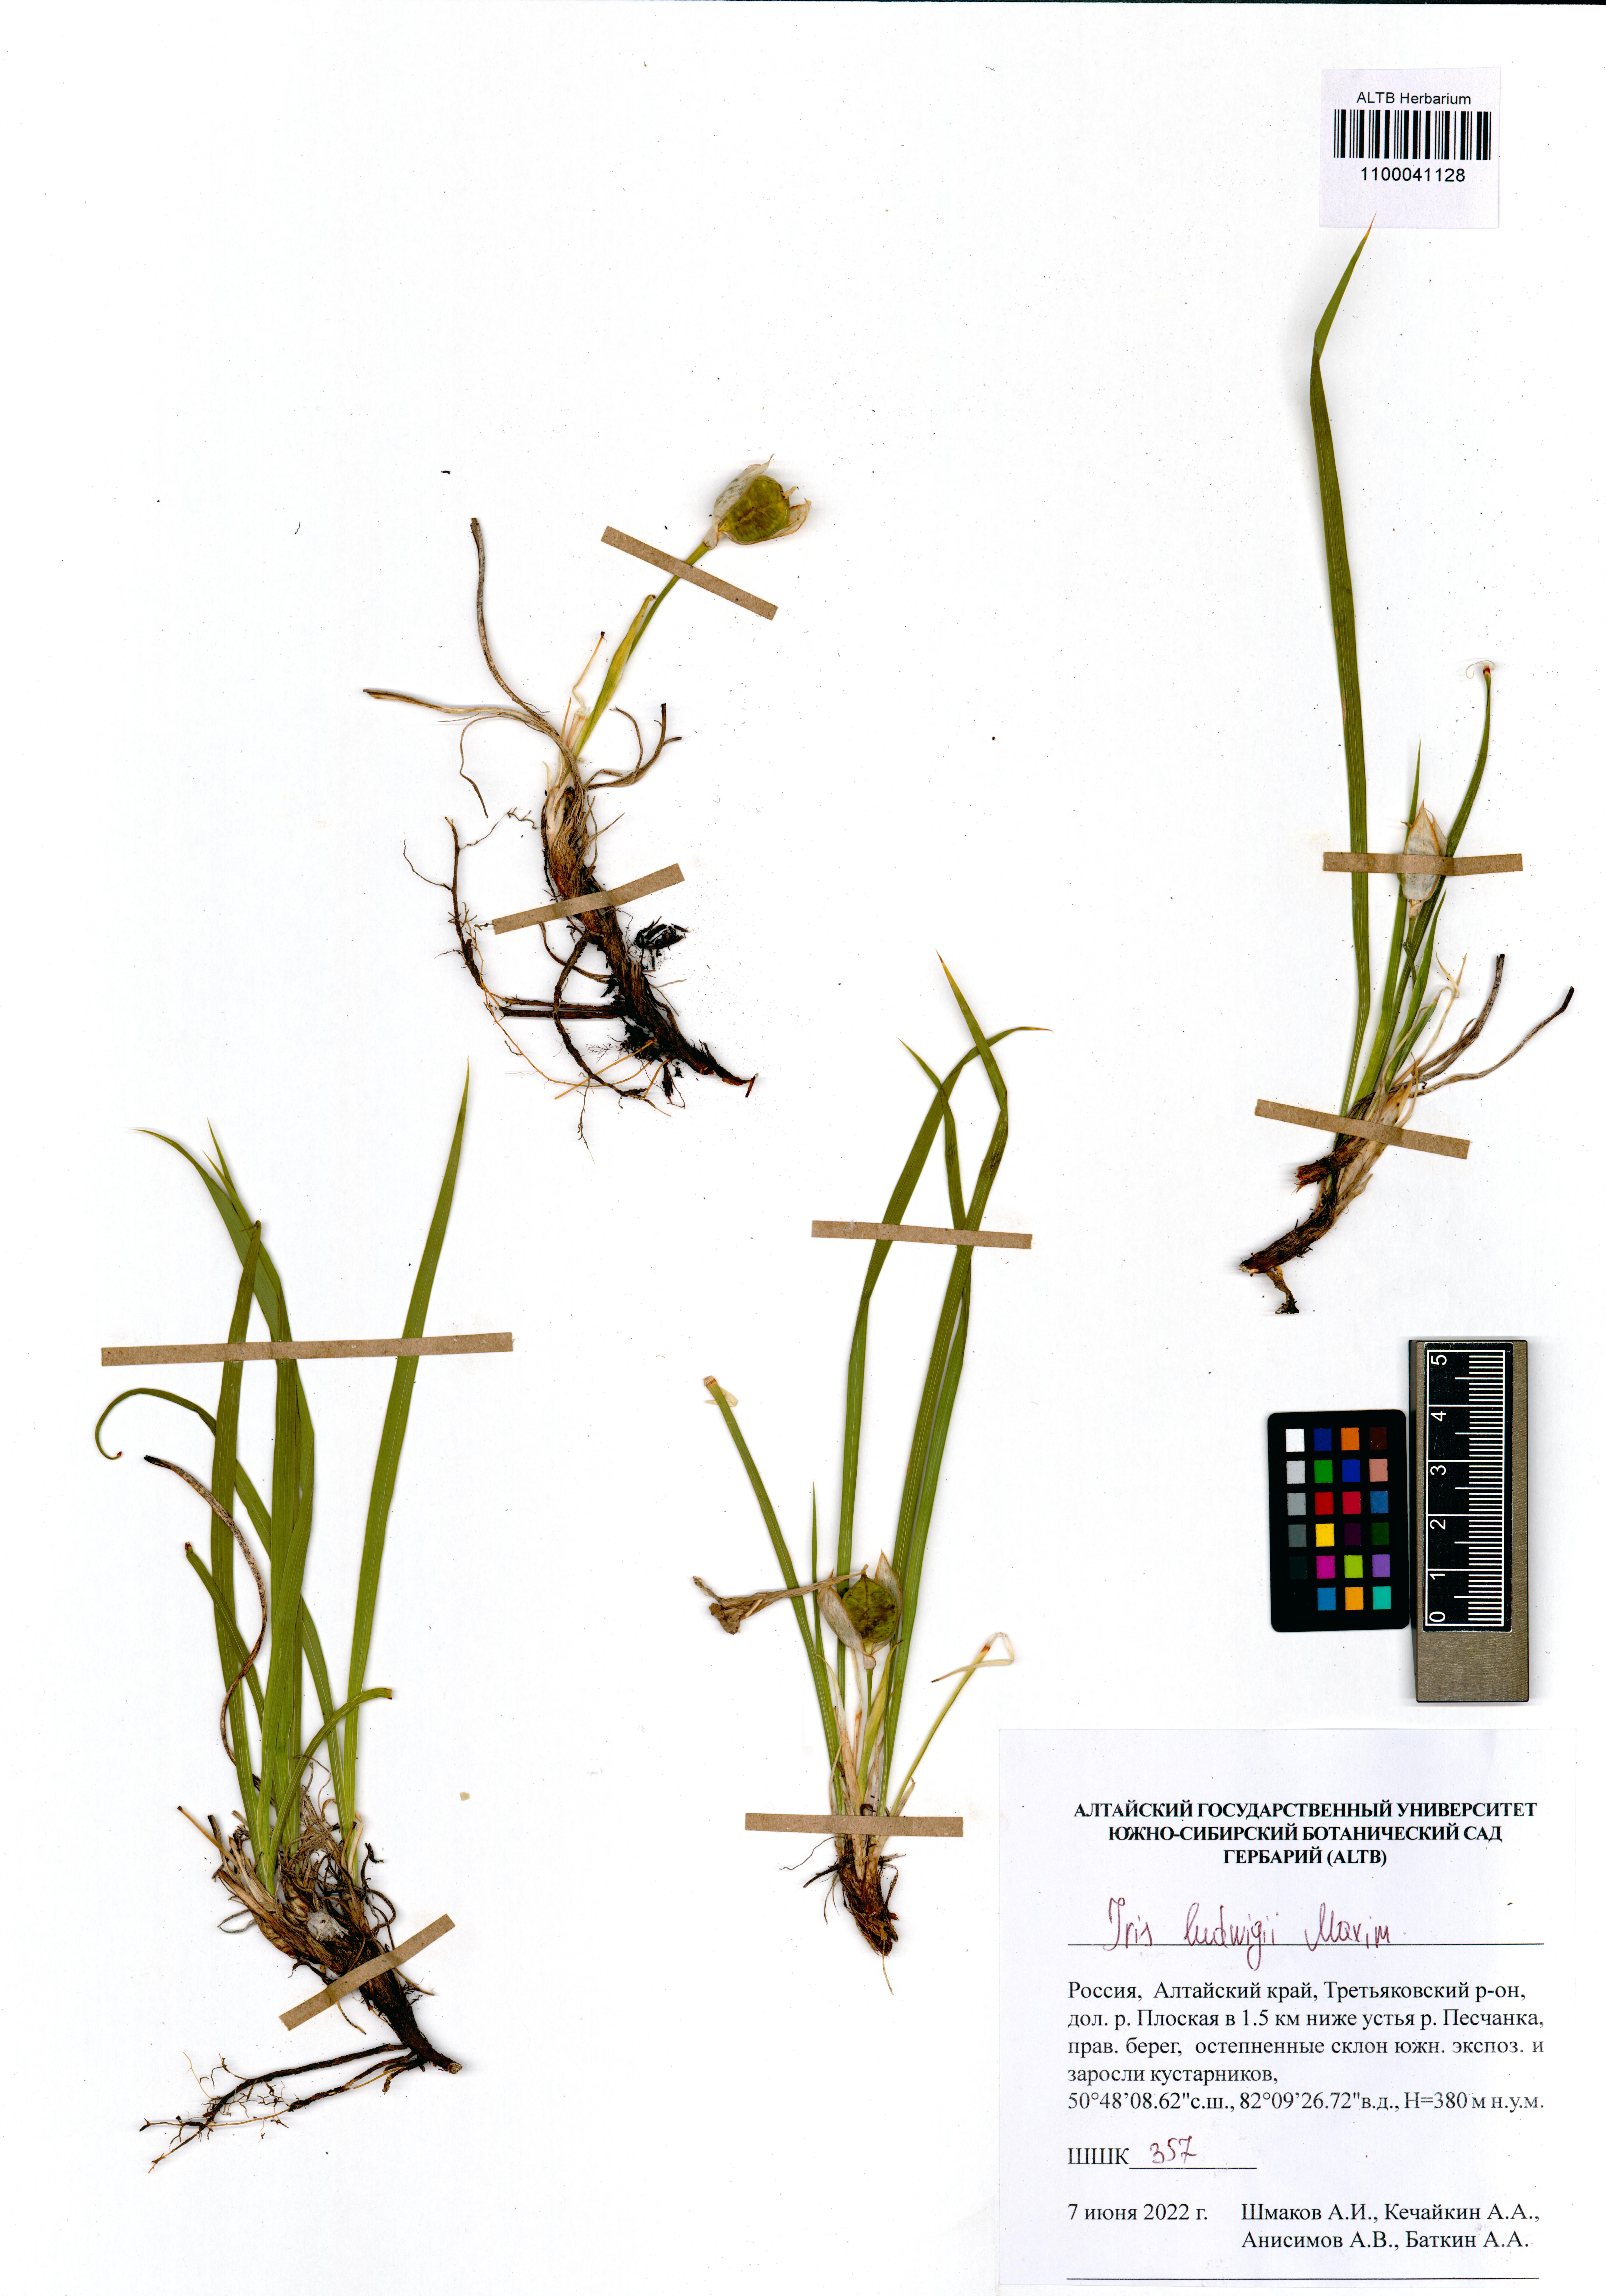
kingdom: Plantae
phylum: Tracheophyta
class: Liliopsida
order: Asparagales
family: Iridaceae
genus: Iris
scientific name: Iris ludwigii
